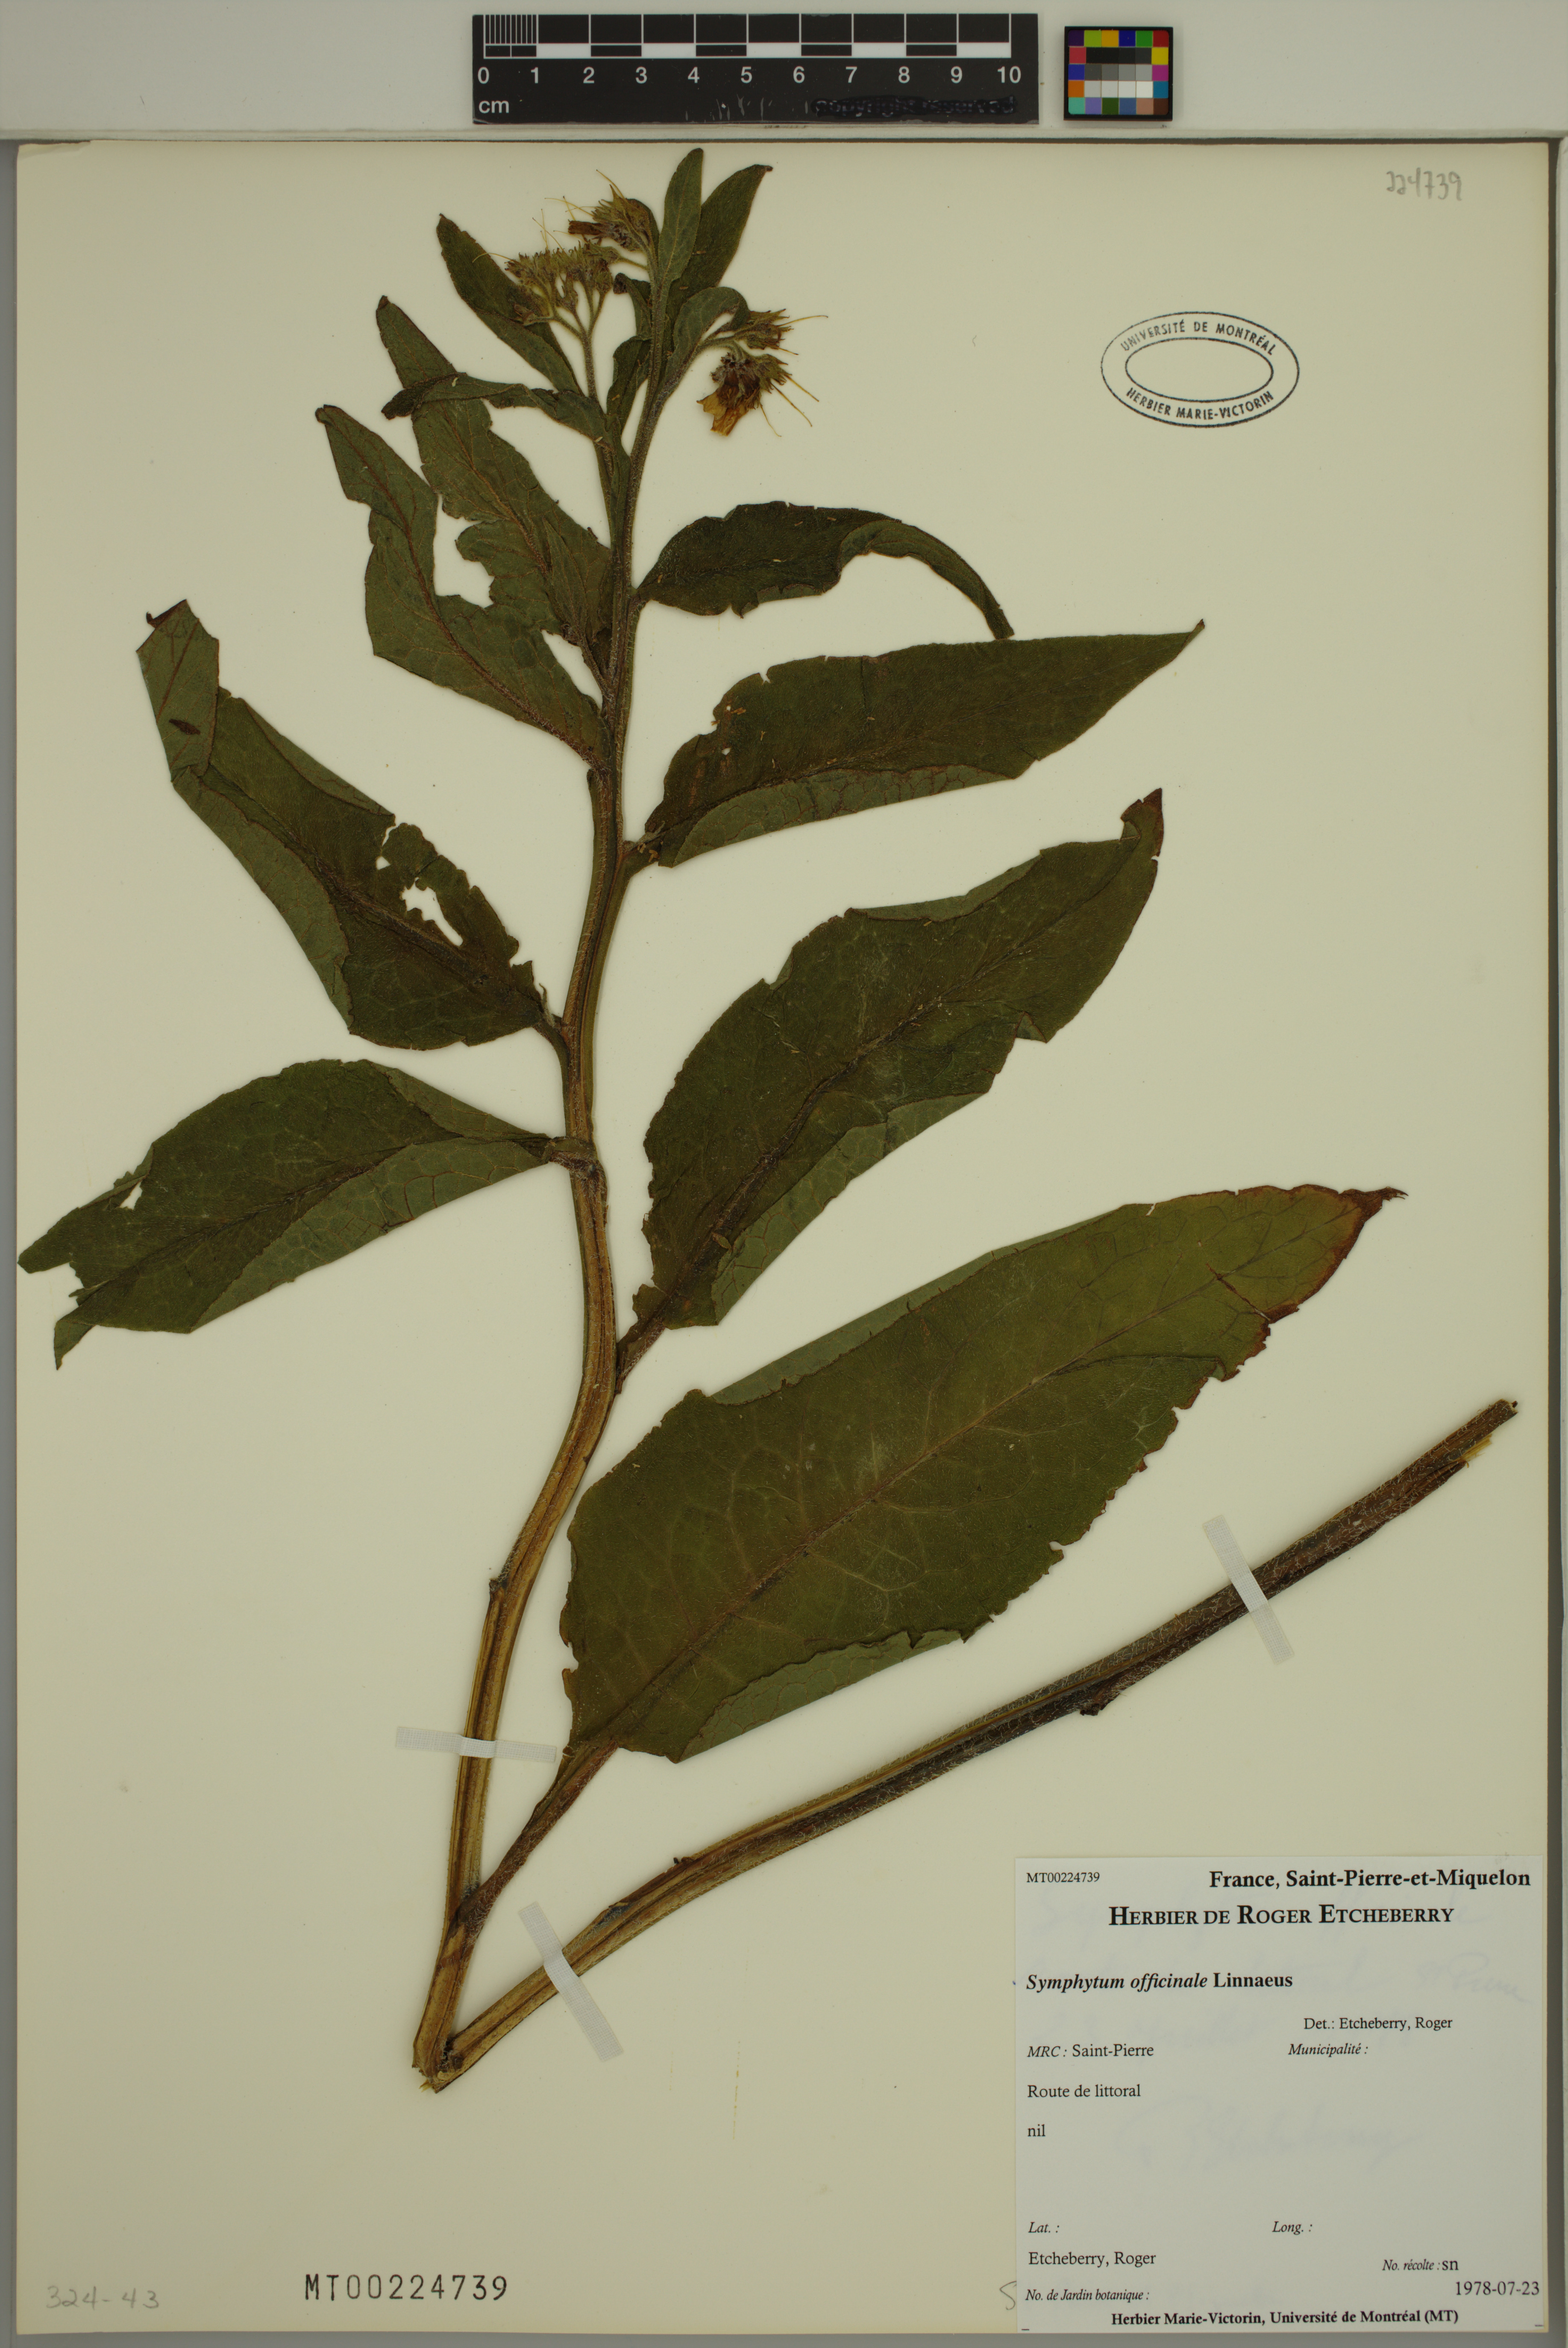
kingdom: Plantae
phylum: Tracheophyta
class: Magnoliopsida
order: Boraginales
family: Boraginaceae
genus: Symphytum
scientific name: Symphytum officinale
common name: Common comfrey
